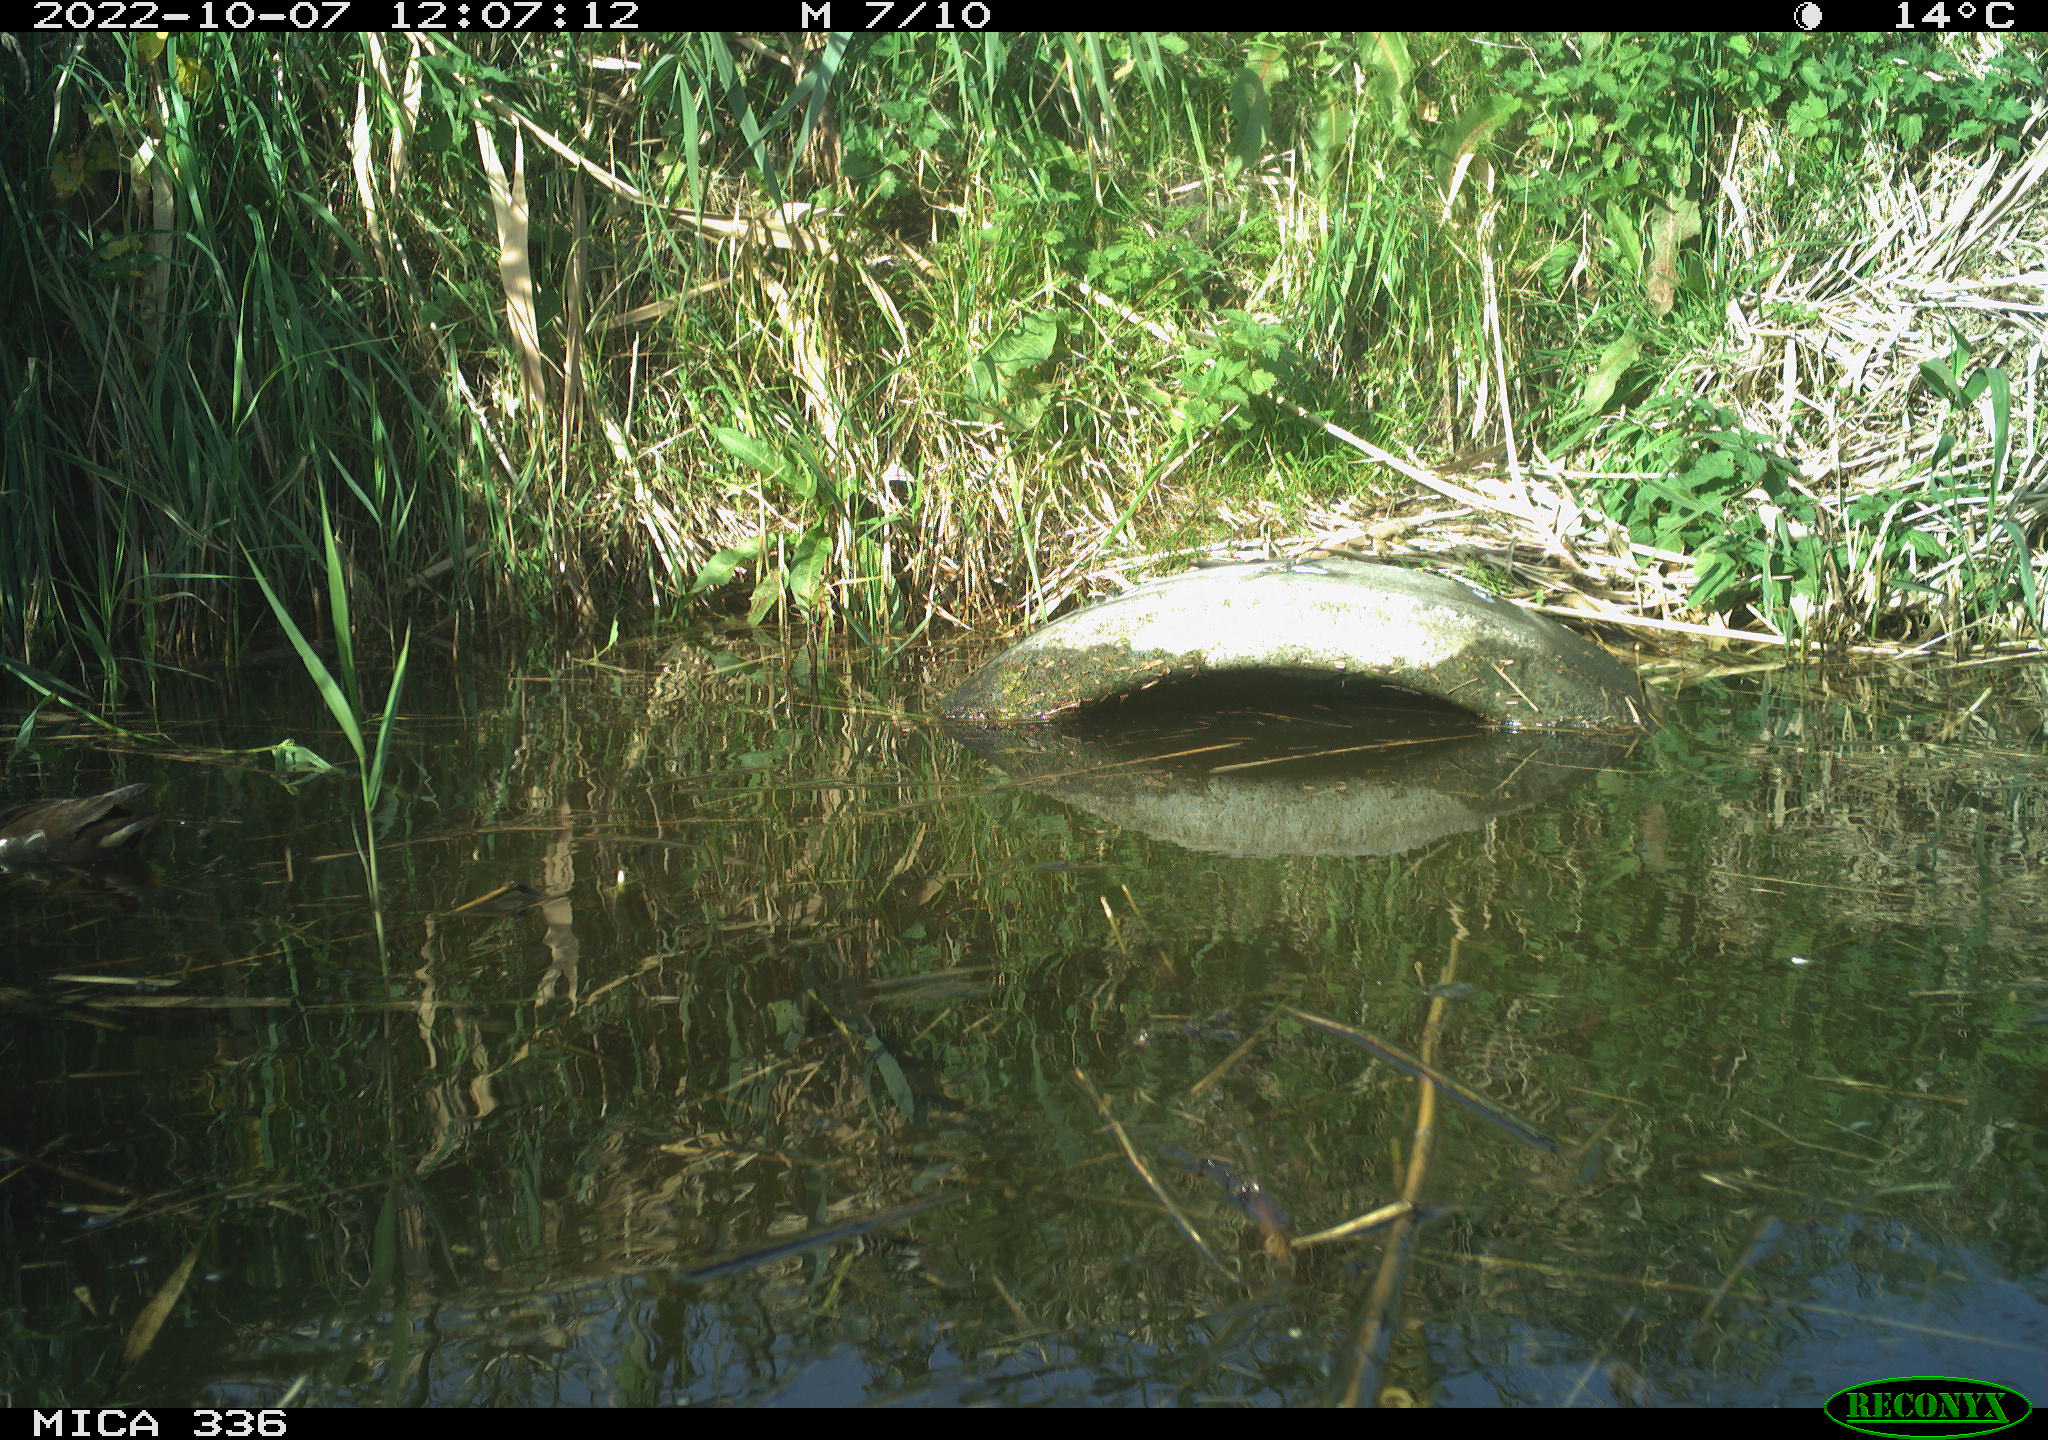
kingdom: Animalia
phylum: Chordata
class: Aves
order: Anseriformes
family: Anatidae
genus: Anas
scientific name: Anas
